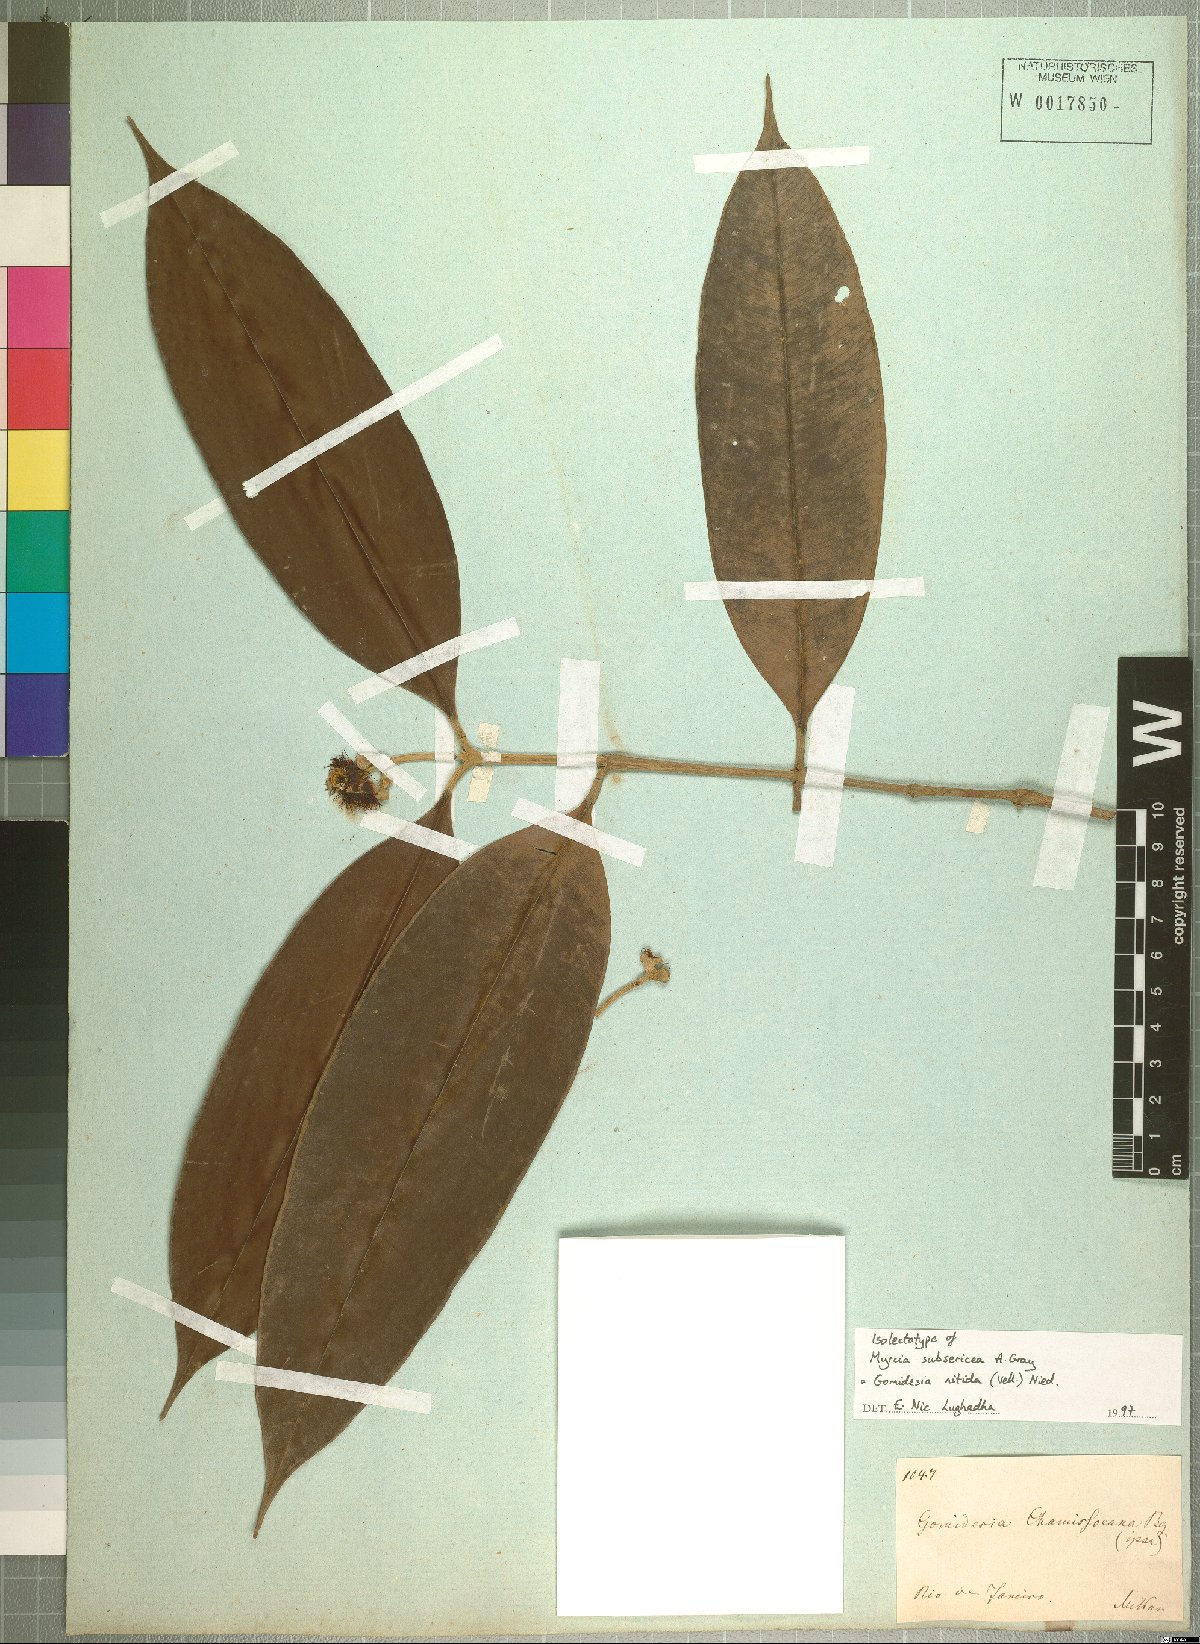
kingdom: Plantae
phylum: Tracheophyta
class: Magnoliopsida
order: Myrtales
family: Myrtaceae
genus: Myrcia
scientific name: Myrcia subsericea
